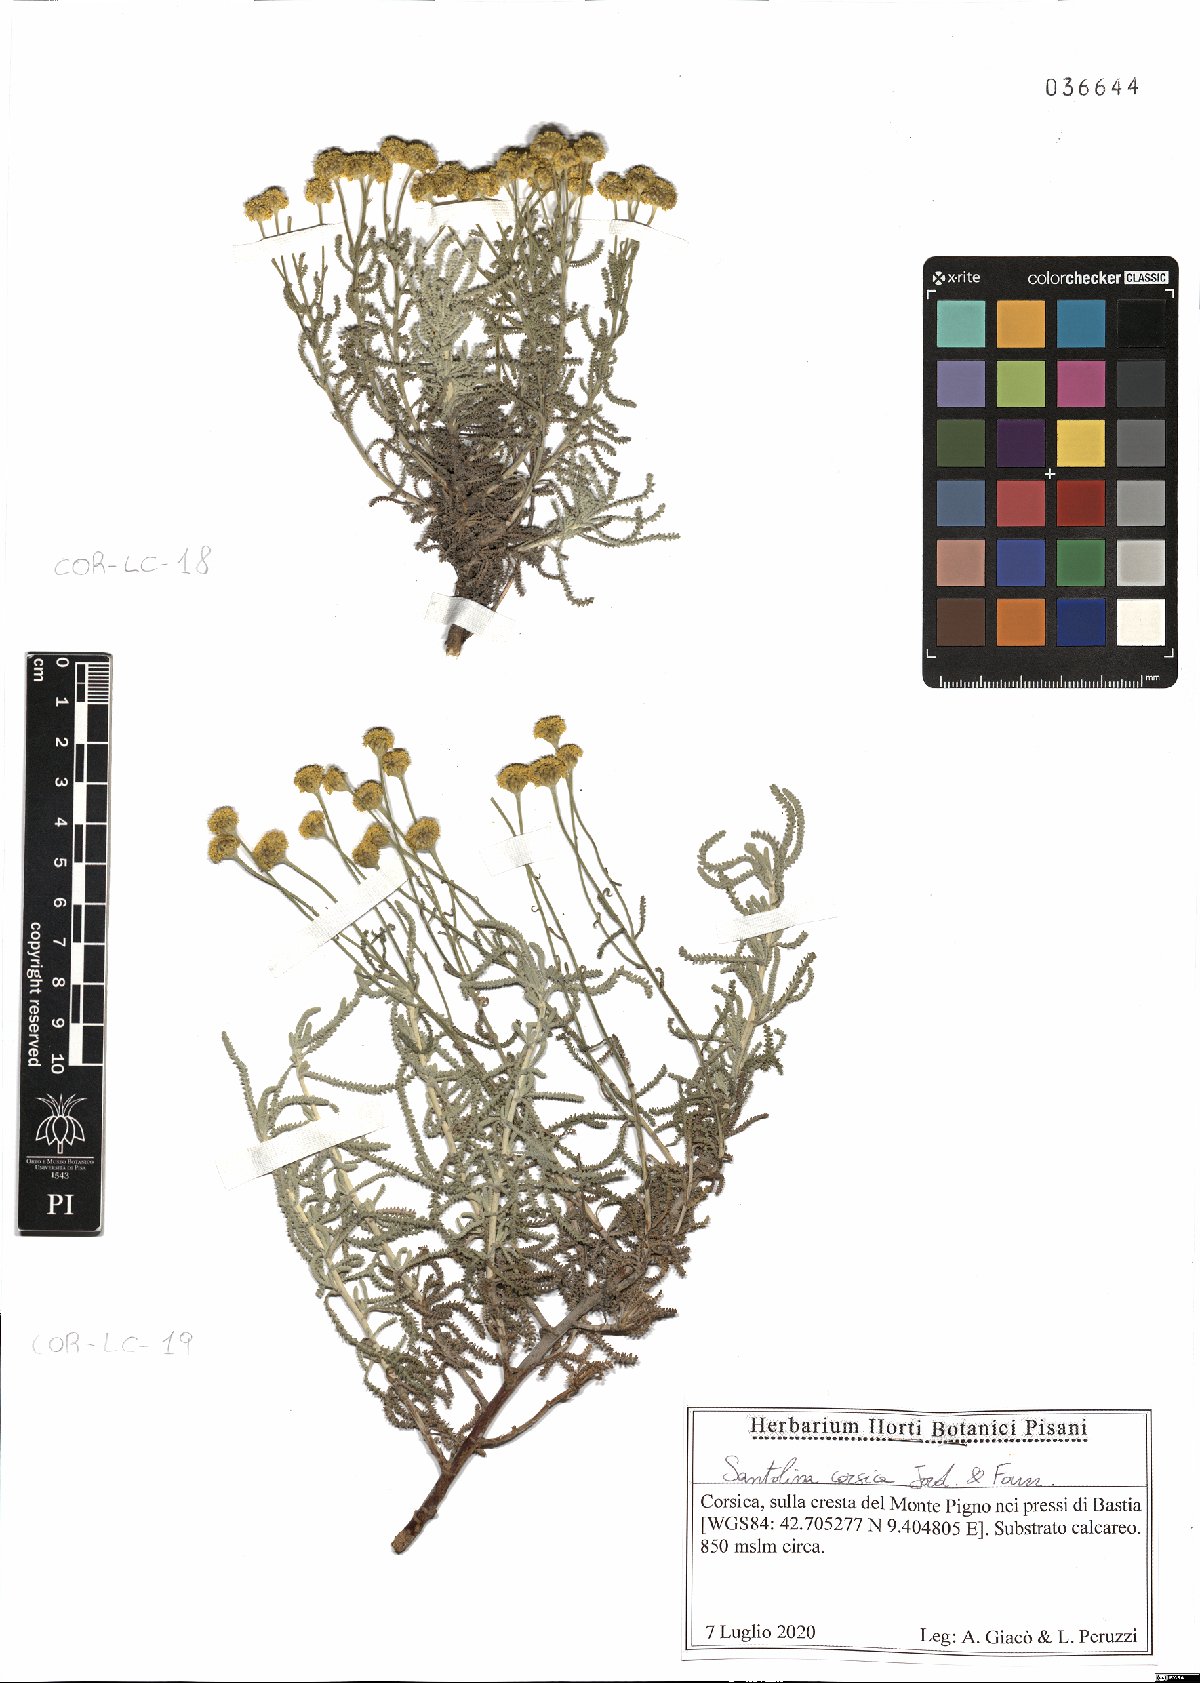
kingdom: Plantae
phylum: Tracheophyta
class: Magnoliopsida
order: Asterales
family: Asteraceae
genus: Santolina
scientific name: Santolina corsica
